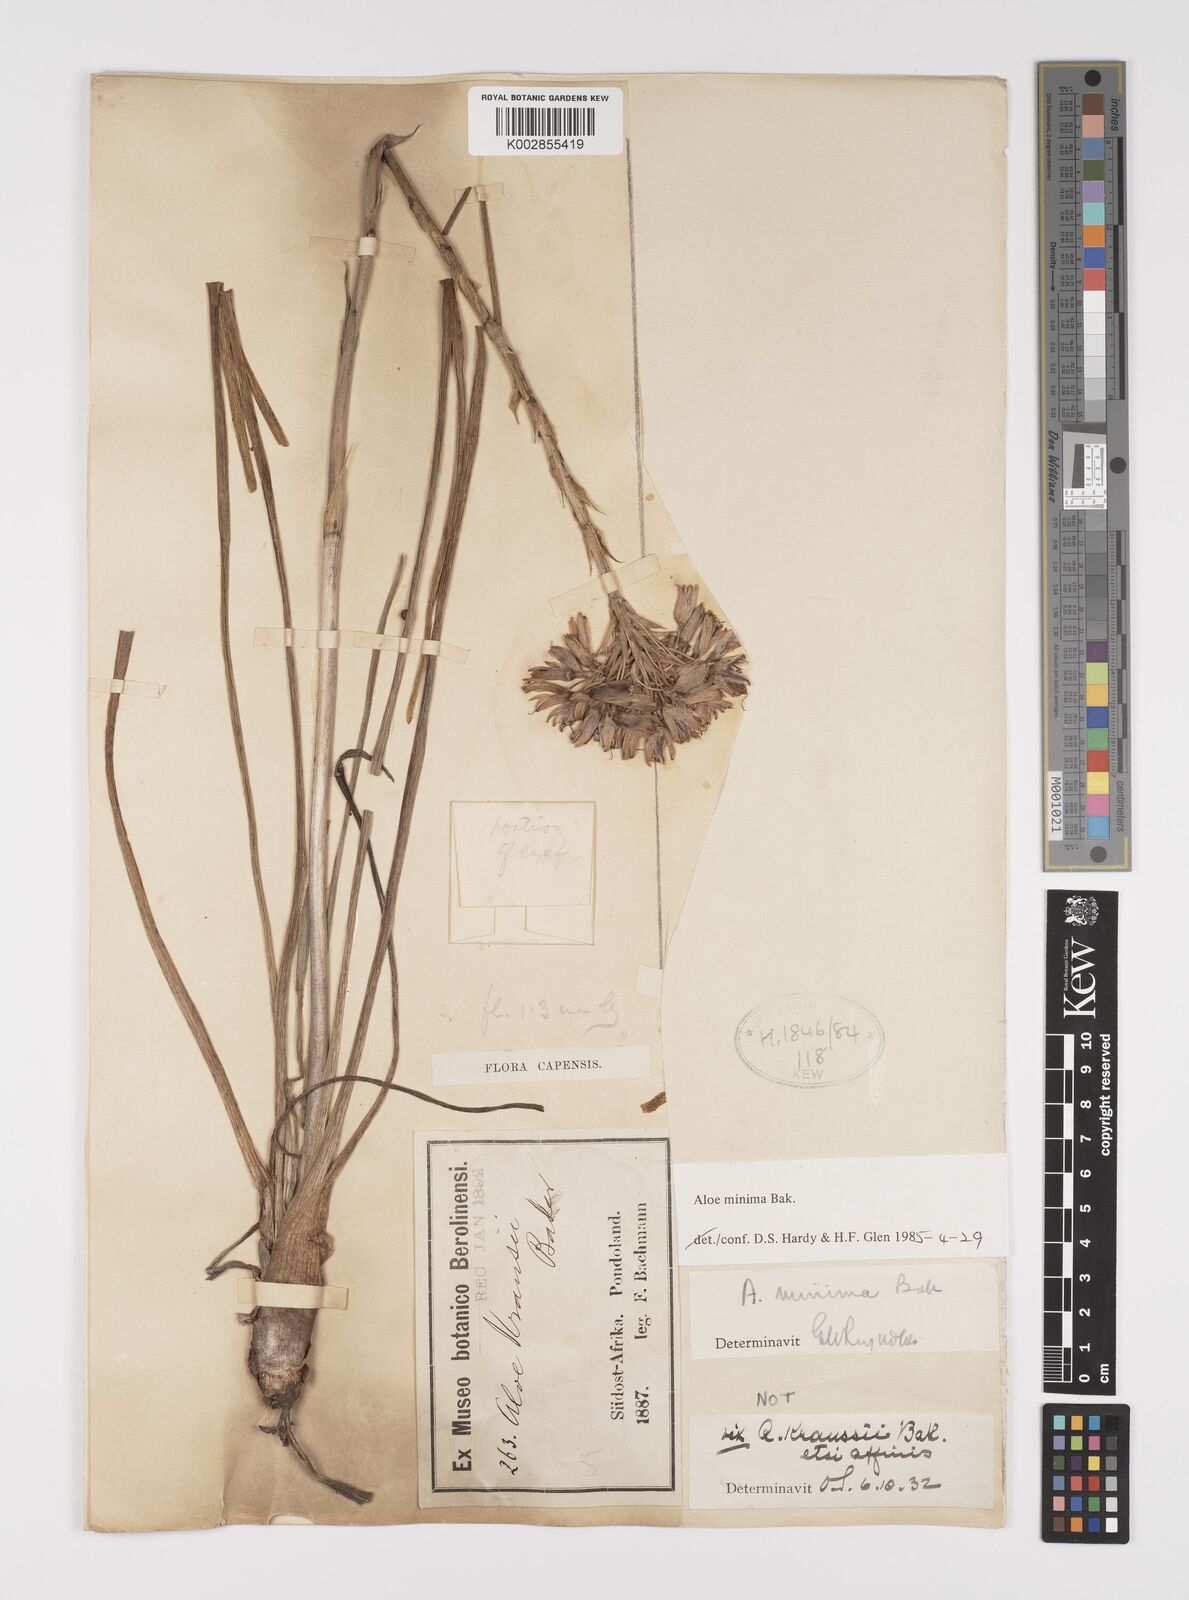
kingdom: Plantae
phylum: Tracheophyta
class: Liliopsida
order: Asparagales
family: Asphodelaceae
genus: Aloe
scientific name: Aloe minima
